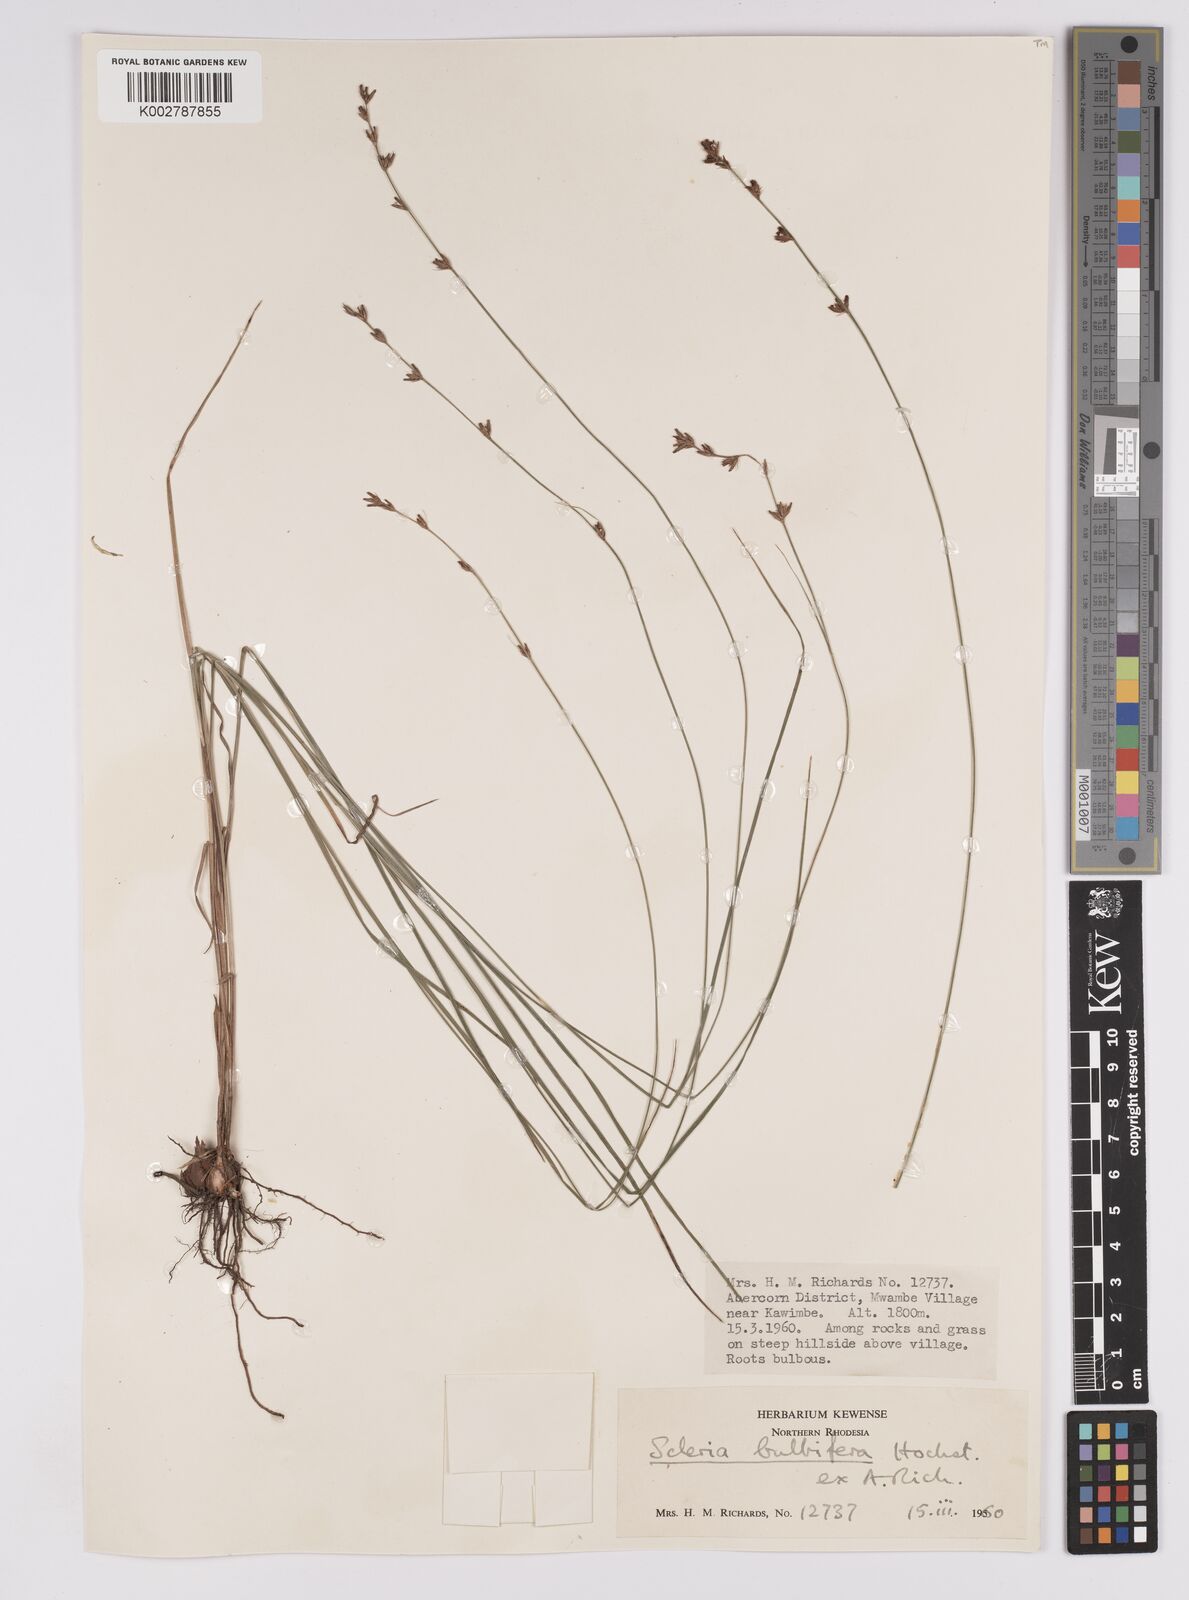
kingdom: Plantae
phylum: Tracheophyta
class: Liliopsida
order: Poales
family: Cyperaceae
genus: Scleria
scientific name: Scleria bulbifera
